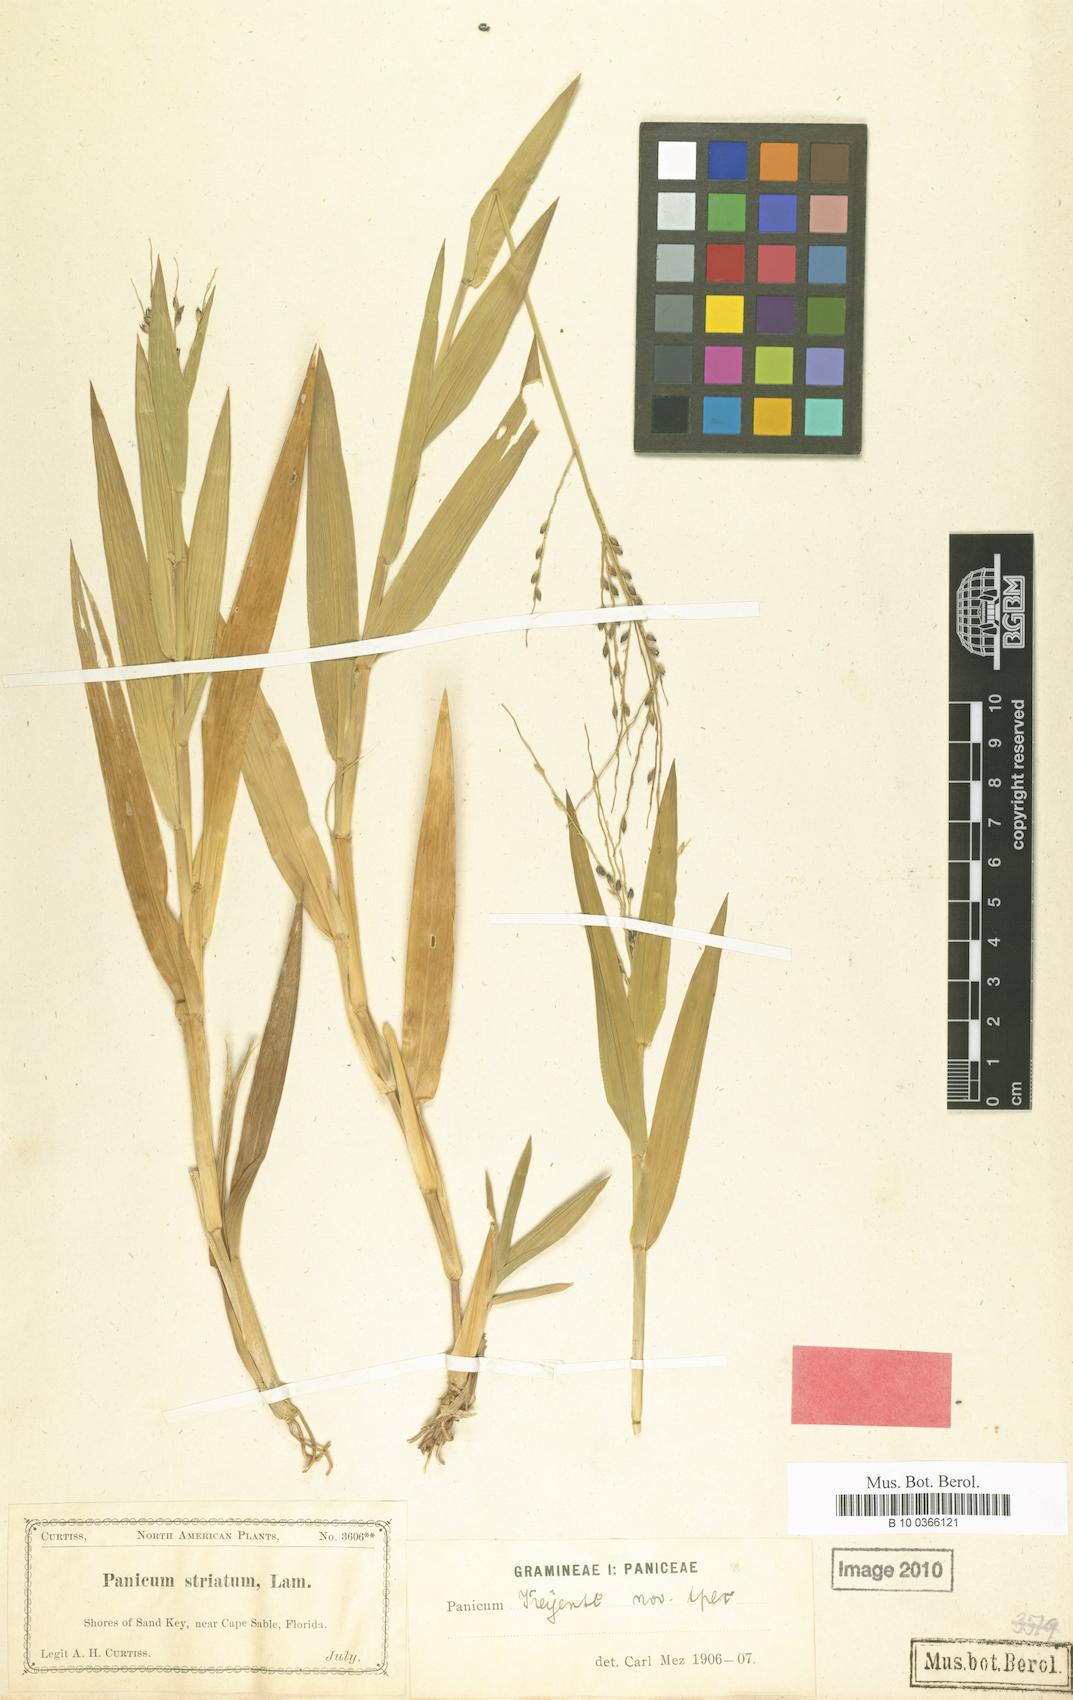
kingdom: Plantae
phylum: Tracheophyta
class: Liliopsida
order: Poales
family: Poaceae
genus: Urochloa
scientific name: Urochloa adspersa
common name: Dominican signal grass
